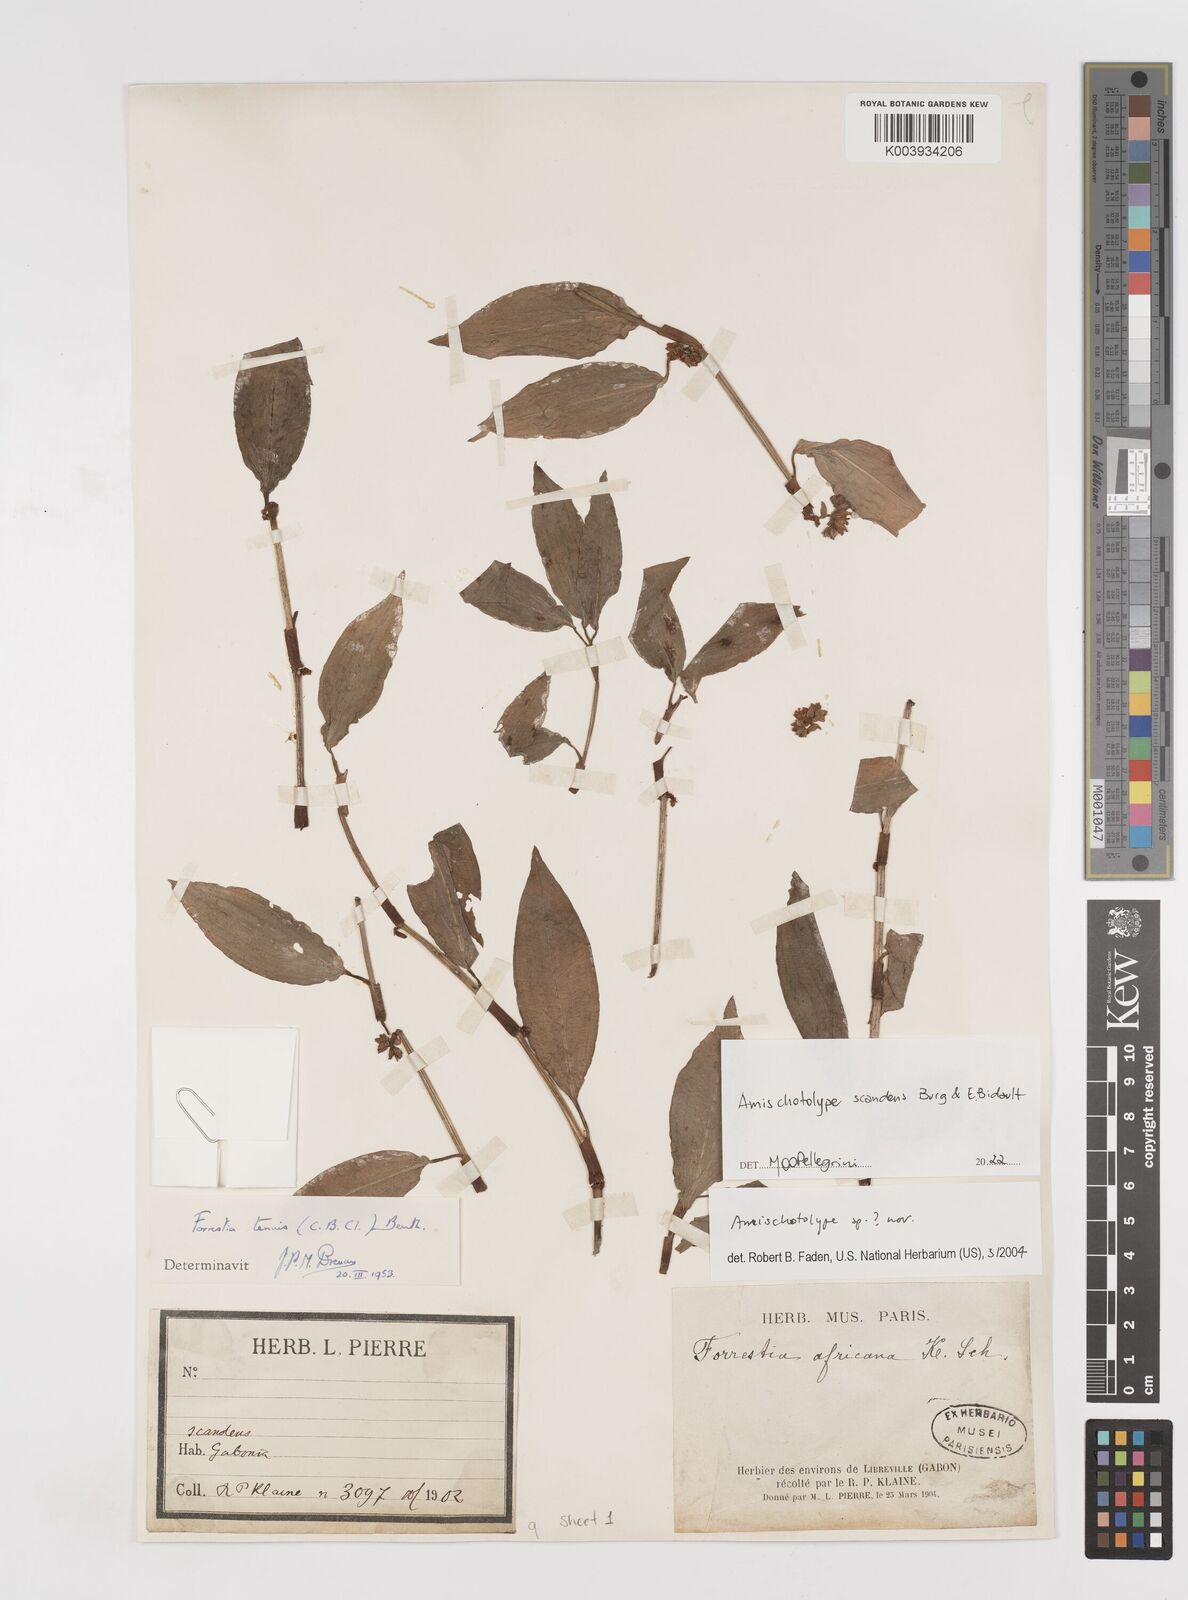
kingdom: Plantae
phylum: Tracheophyta
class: Liliopsida
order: Commelinales
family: Commelinaceae
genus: Amischotolype
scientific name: Amischotolype
